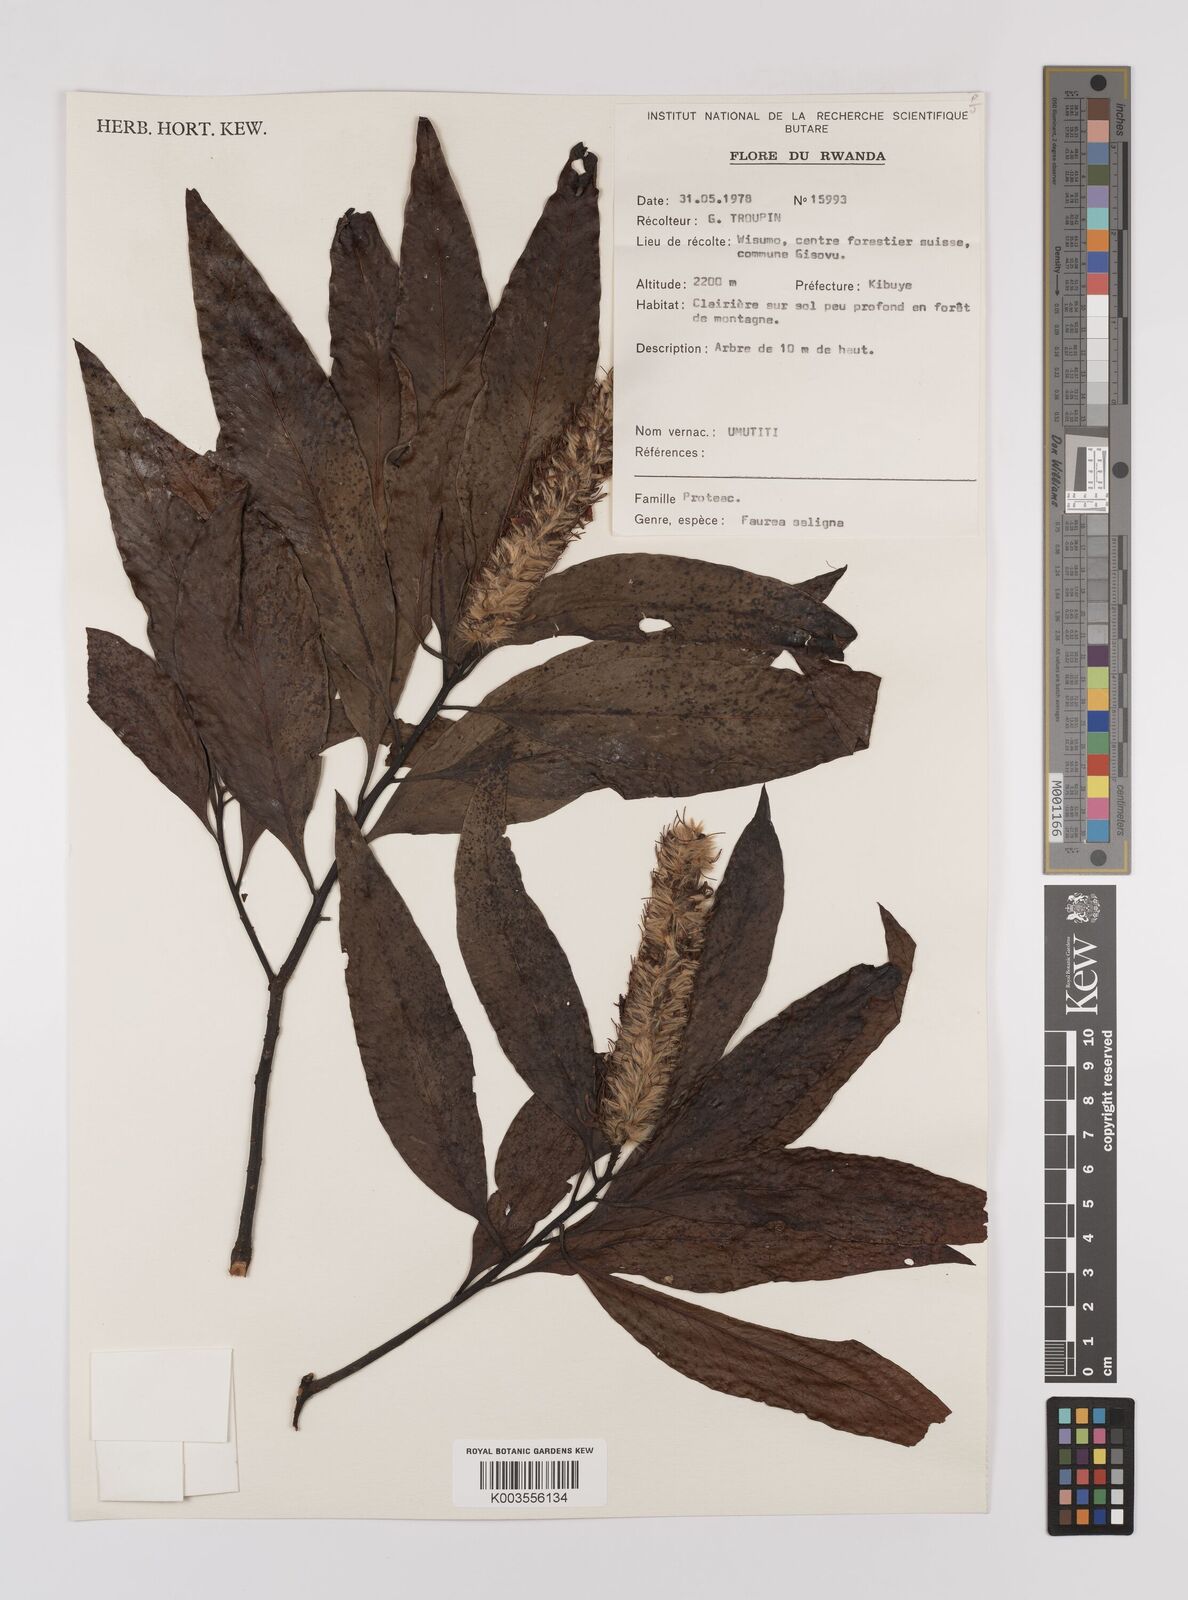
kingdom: Plantae
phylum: Tracheophyta
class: Magnoliopsida
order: Proteales
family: Proteaceae
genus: Faurea
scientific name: Faurea saligna
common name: African bean
